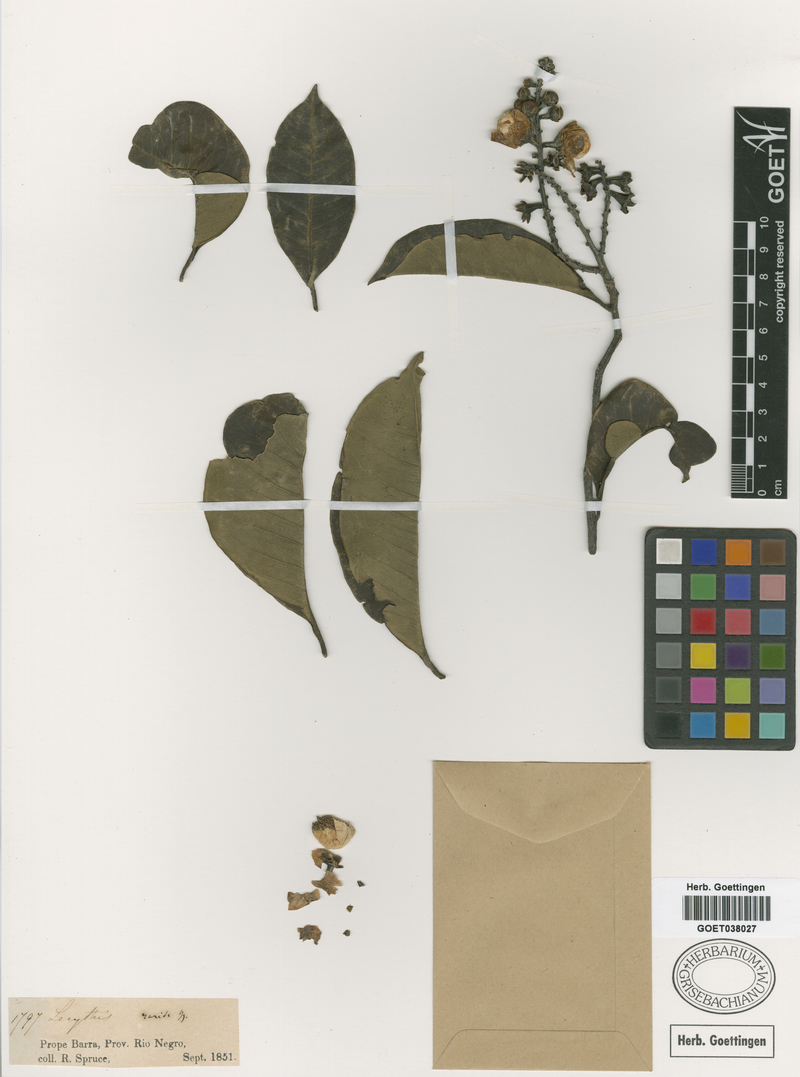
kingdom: Plantae
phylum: Tracheophyta
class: Magnoliopsida
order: Ericales
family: Lecythidaceae
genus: Lecythis
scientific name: Lecythis chartacea
